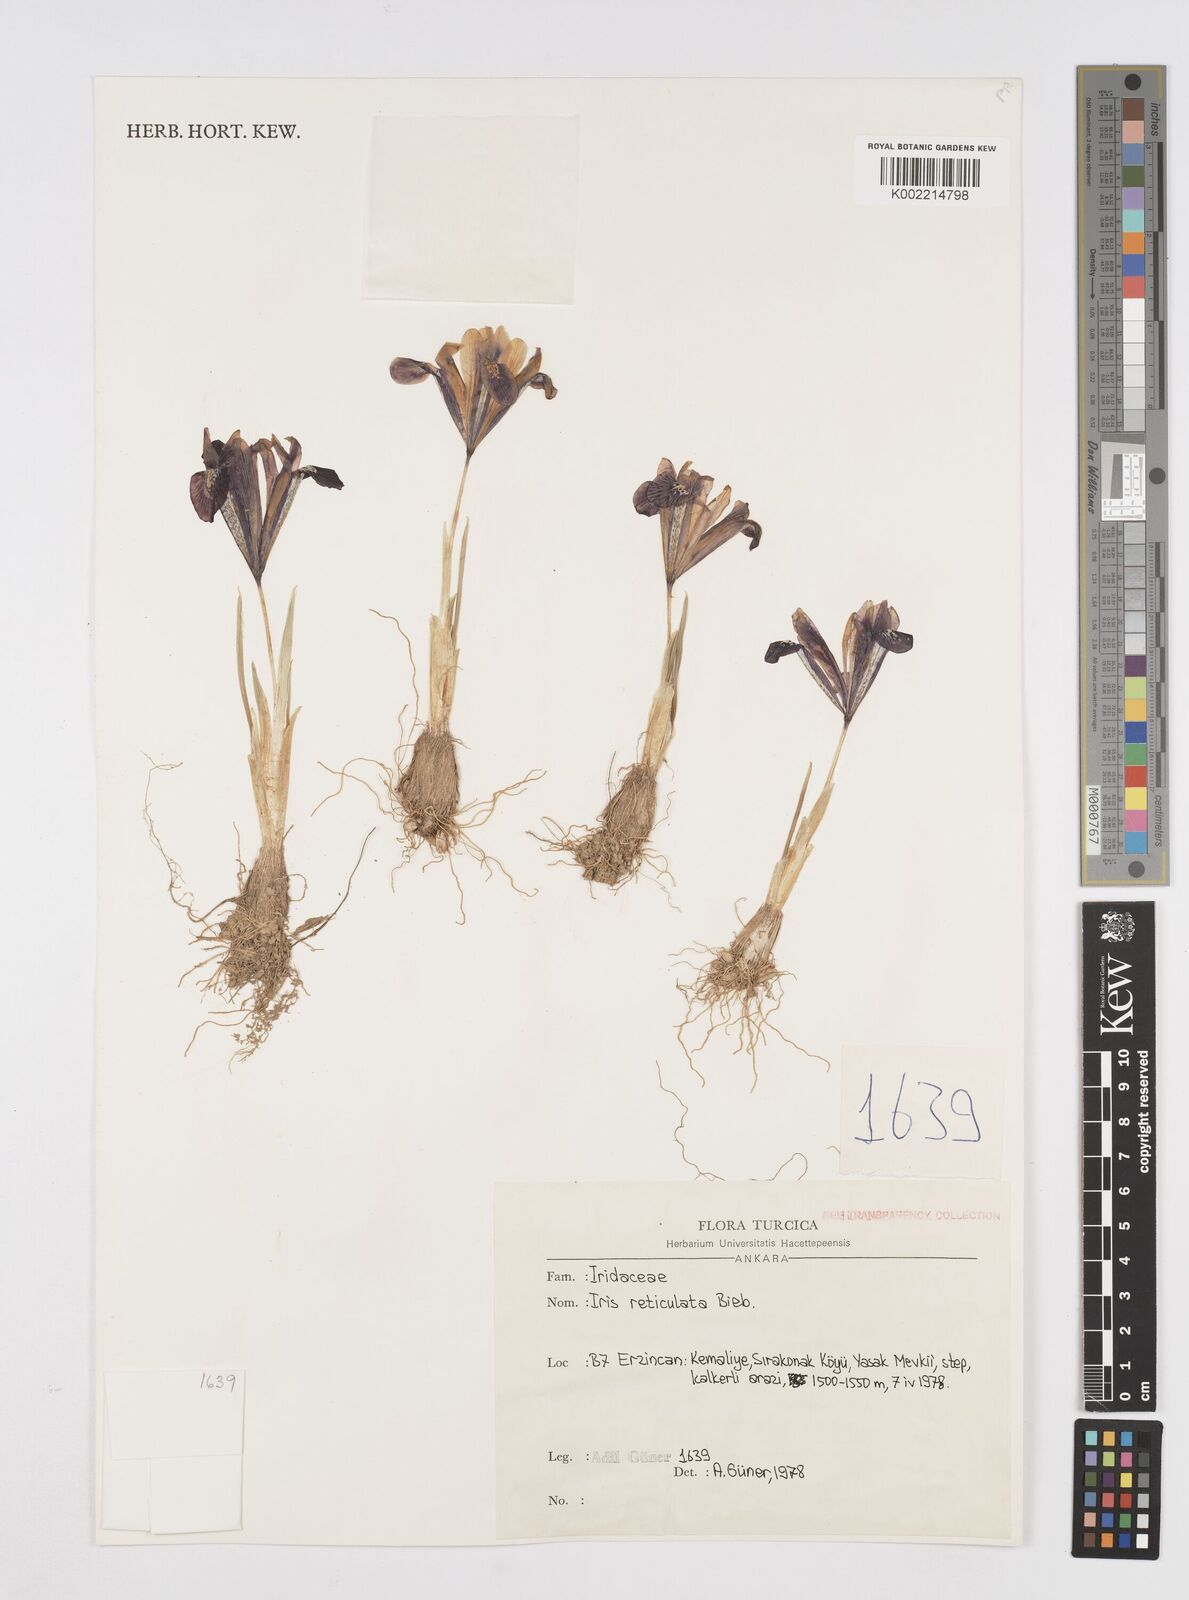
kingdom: Plantae
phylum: Tracheophyta
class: Liliopsida
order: Asparagales
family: Iridaceae
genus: Iris
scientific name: Iris reticulata
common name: Netted iris
